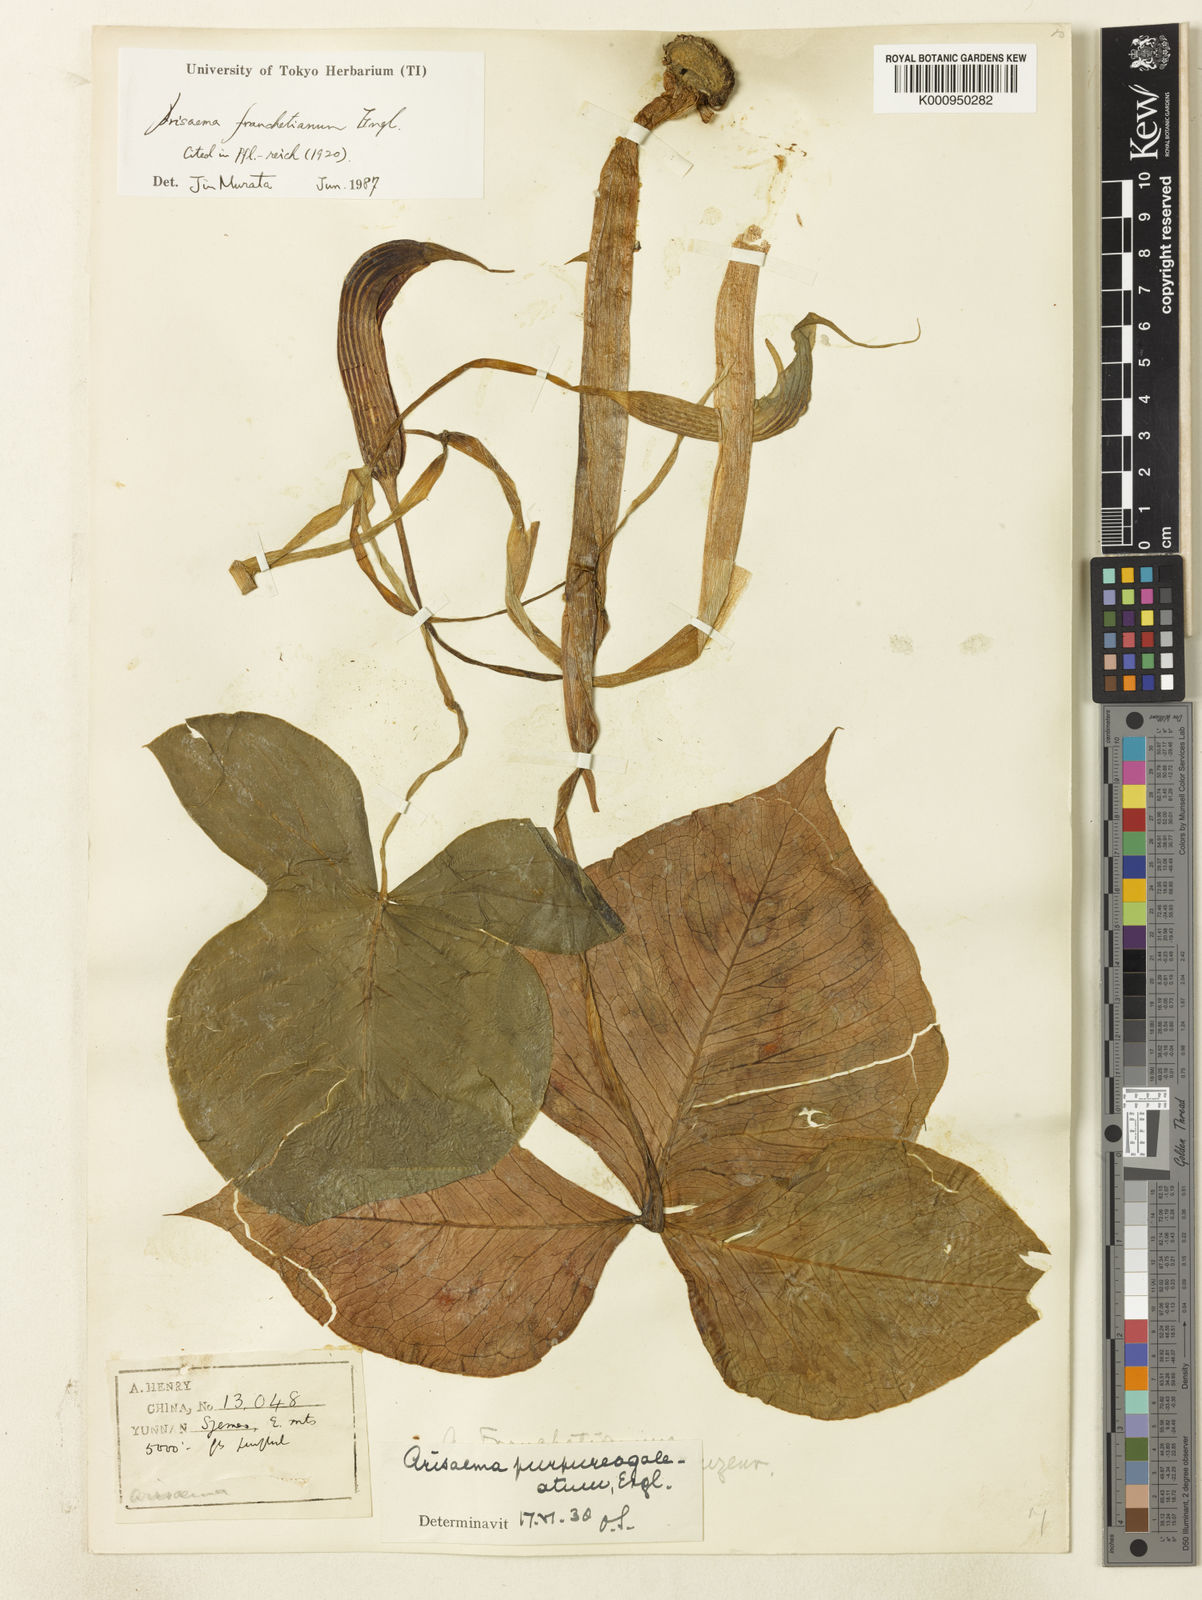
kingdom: Plantae
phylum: Tracheophyta
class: Liliopsida
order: Alismatales
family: Araceae
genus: Arisaema
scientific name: Arisaema franchetianum
